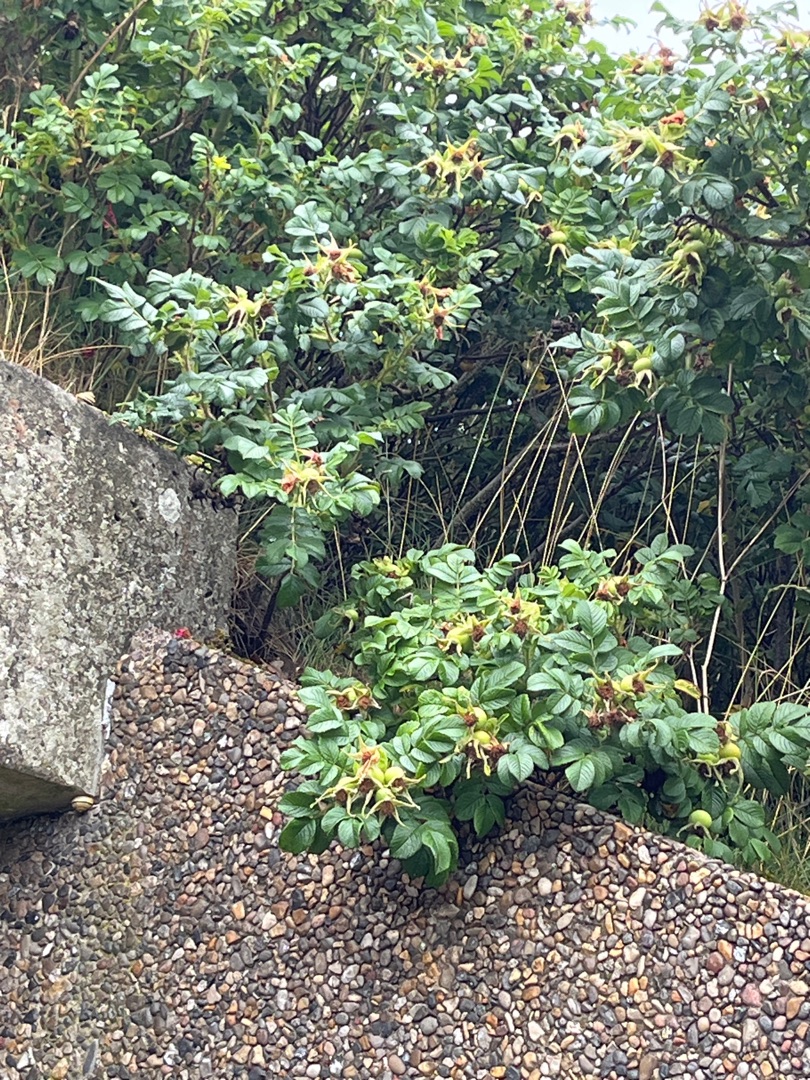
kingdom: Plantae
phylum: Tracheophyta
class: Magnoliopsida
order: Rosales
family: Rosaceae
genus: Rosa
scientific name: Rosa rugosa
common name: Rynket rose
